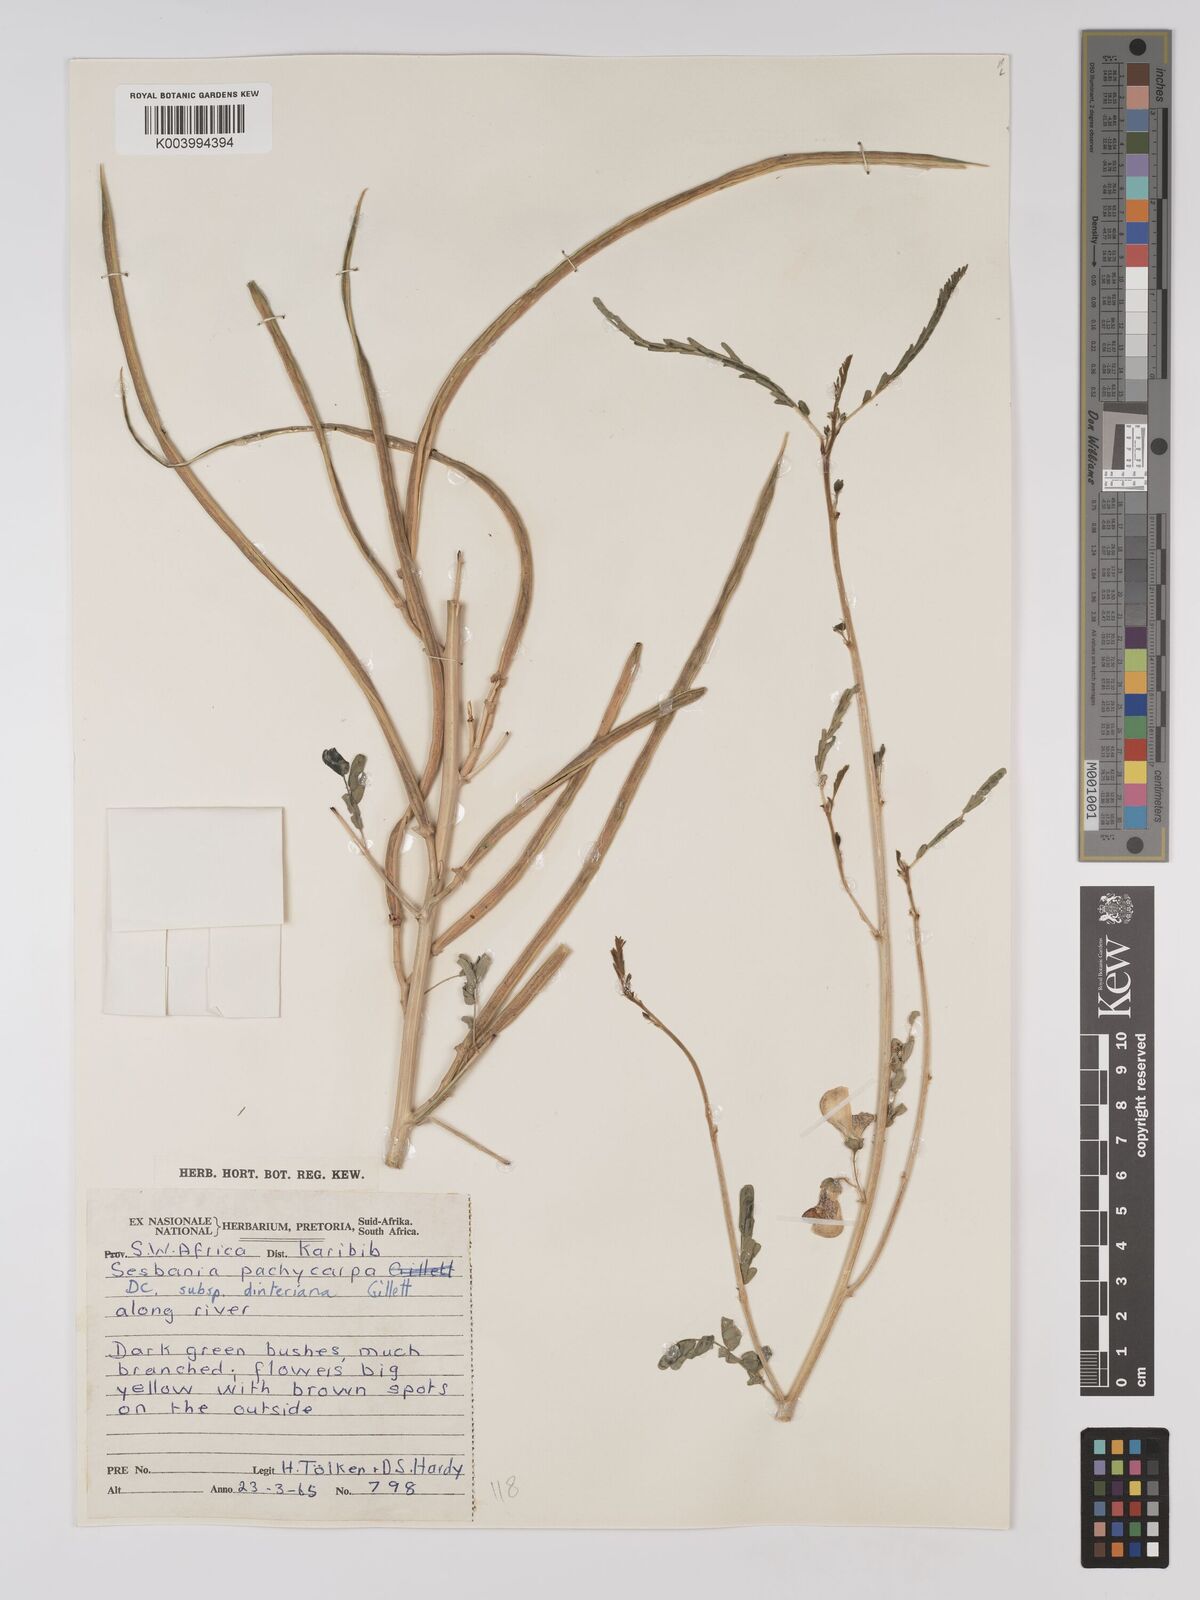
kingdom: Plantae
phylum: Tracheophyta
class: Magnoliopsida
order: Fabales
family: Fabaceae
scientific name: Fabaceae
